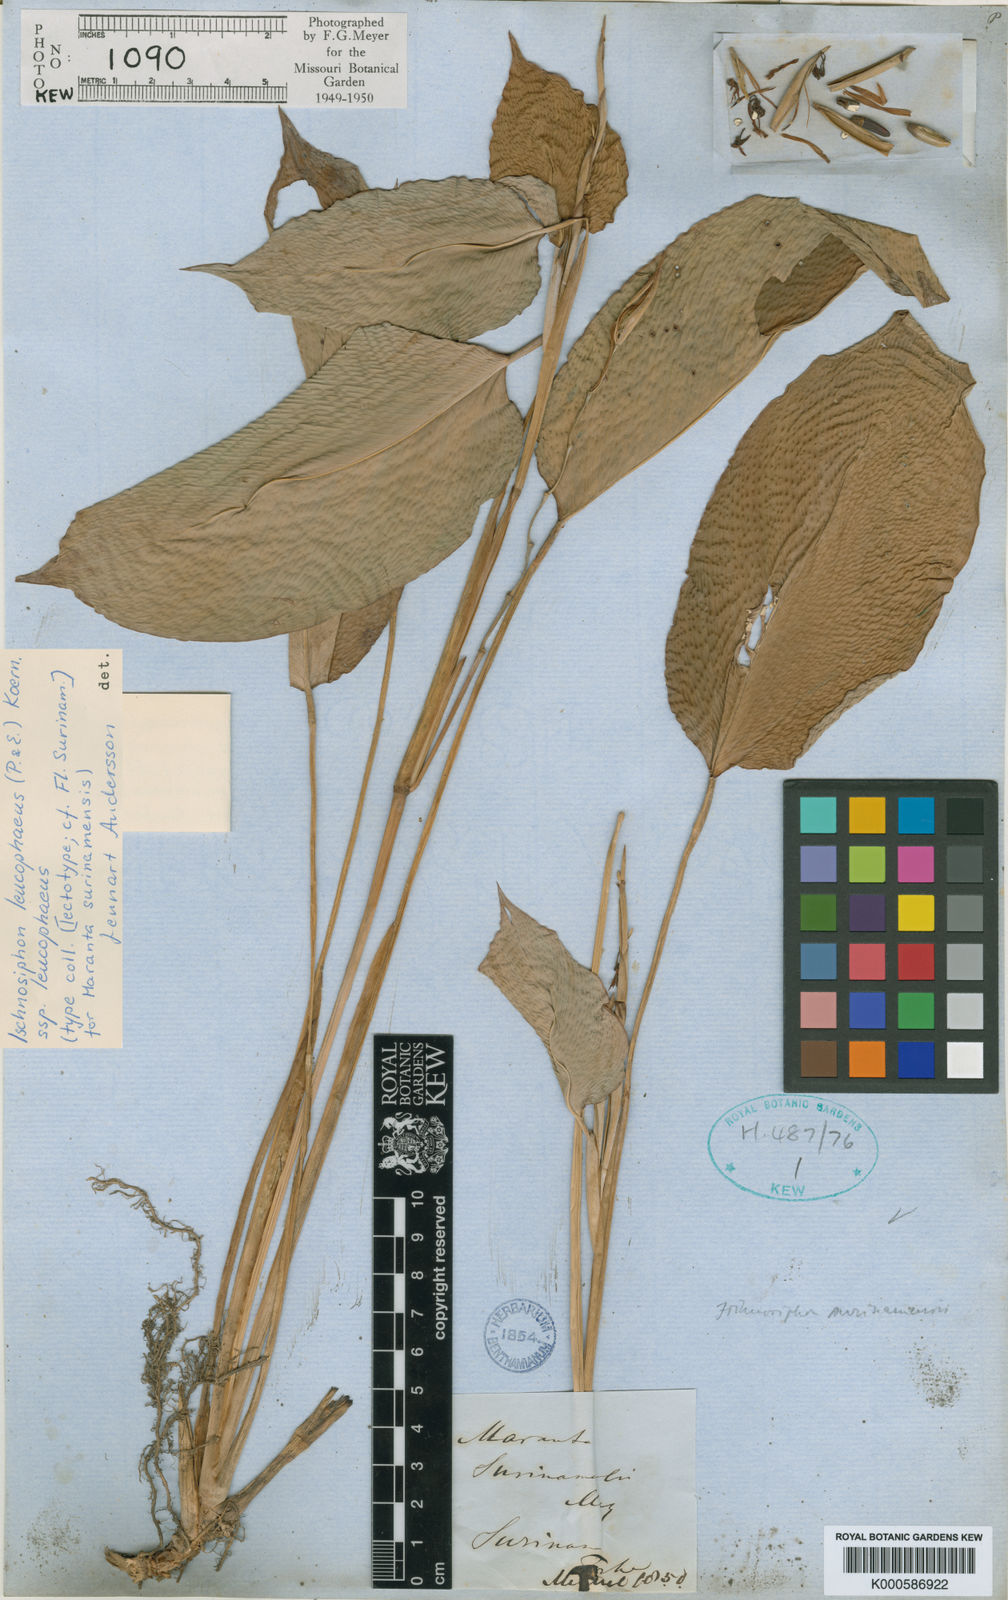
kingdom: Plantae
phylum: Tracheophyta
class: Liliopsida
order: Zingiberales
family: Marantaceae
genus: Ischnosiphon
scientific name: Ischnosiphon leucophaeus
